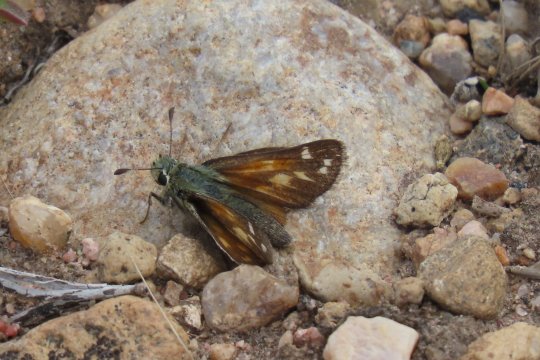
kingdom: Animalia
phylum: Arthropoda
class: Insecta
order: Lepidoptera
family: Hesperiidae
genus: Hesperia
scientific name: Hesperia comma
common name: Western Branded Skipper
